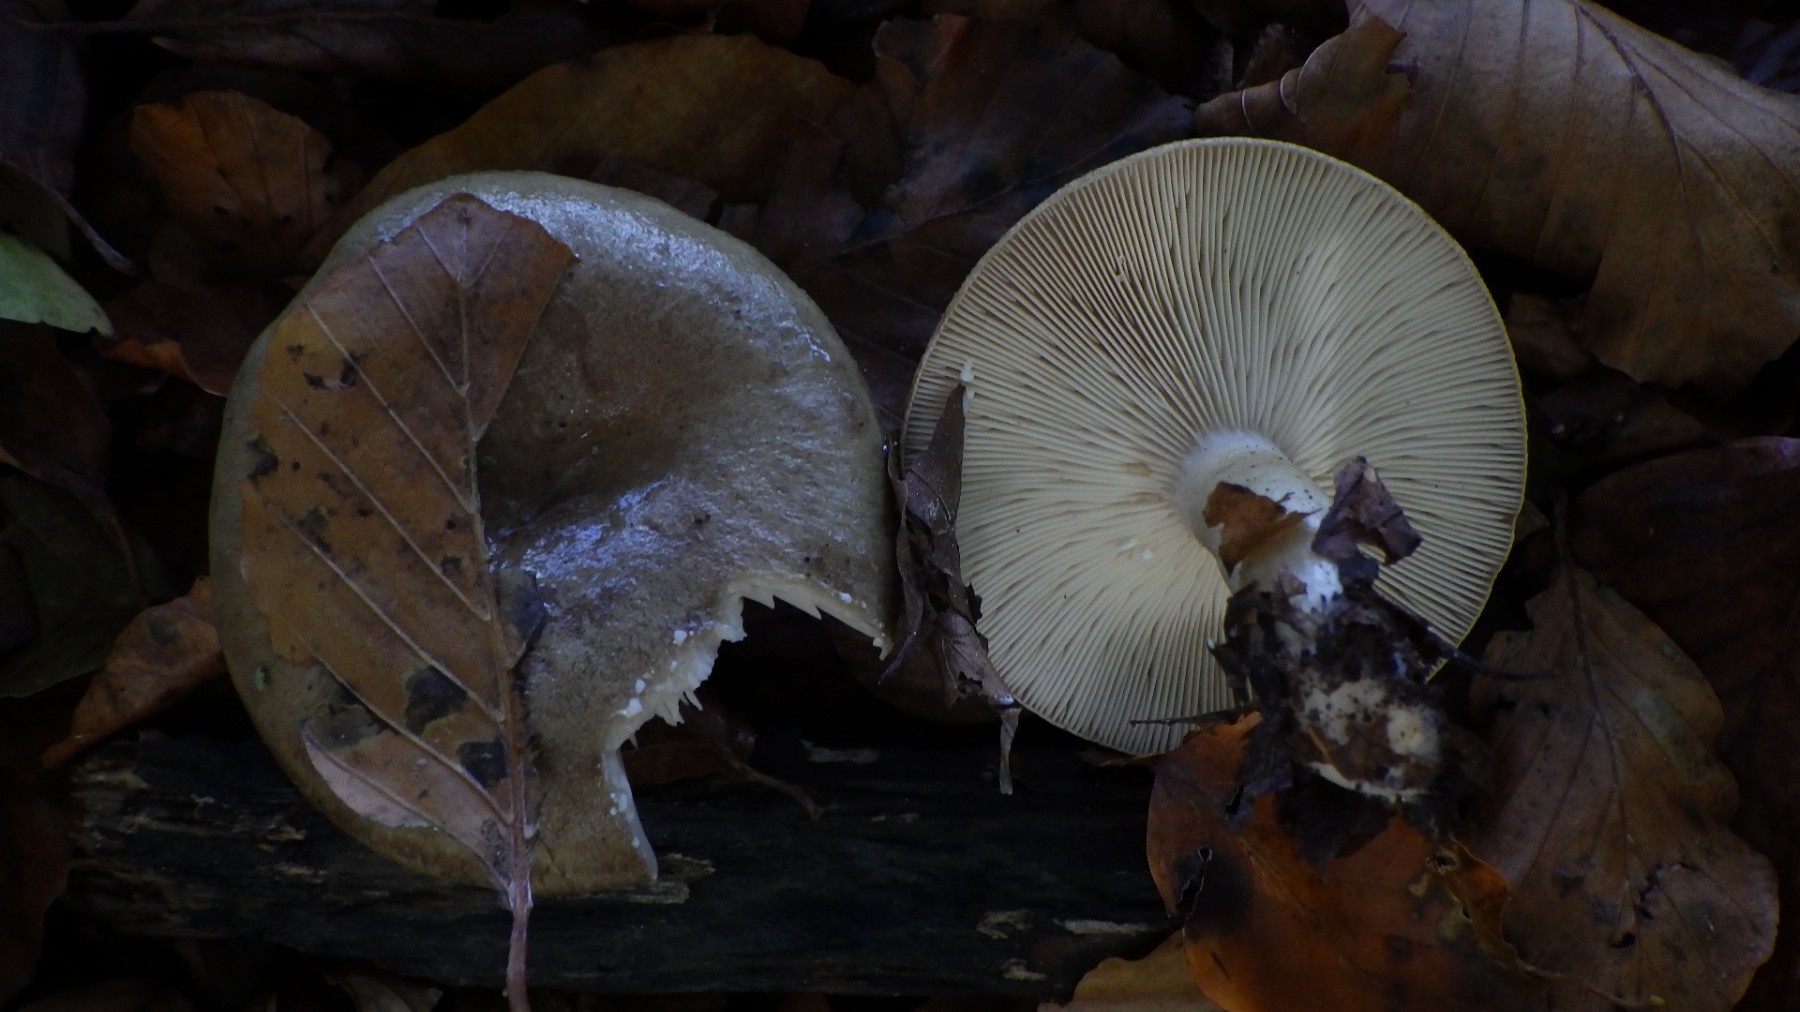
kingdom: Fungi
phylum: Basidiomycota
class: Agaricomycetes
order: Russulales
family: Russulaceae
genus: Lactarius
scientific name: Lactarius blennius
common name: dråbeplettet mælkehat
